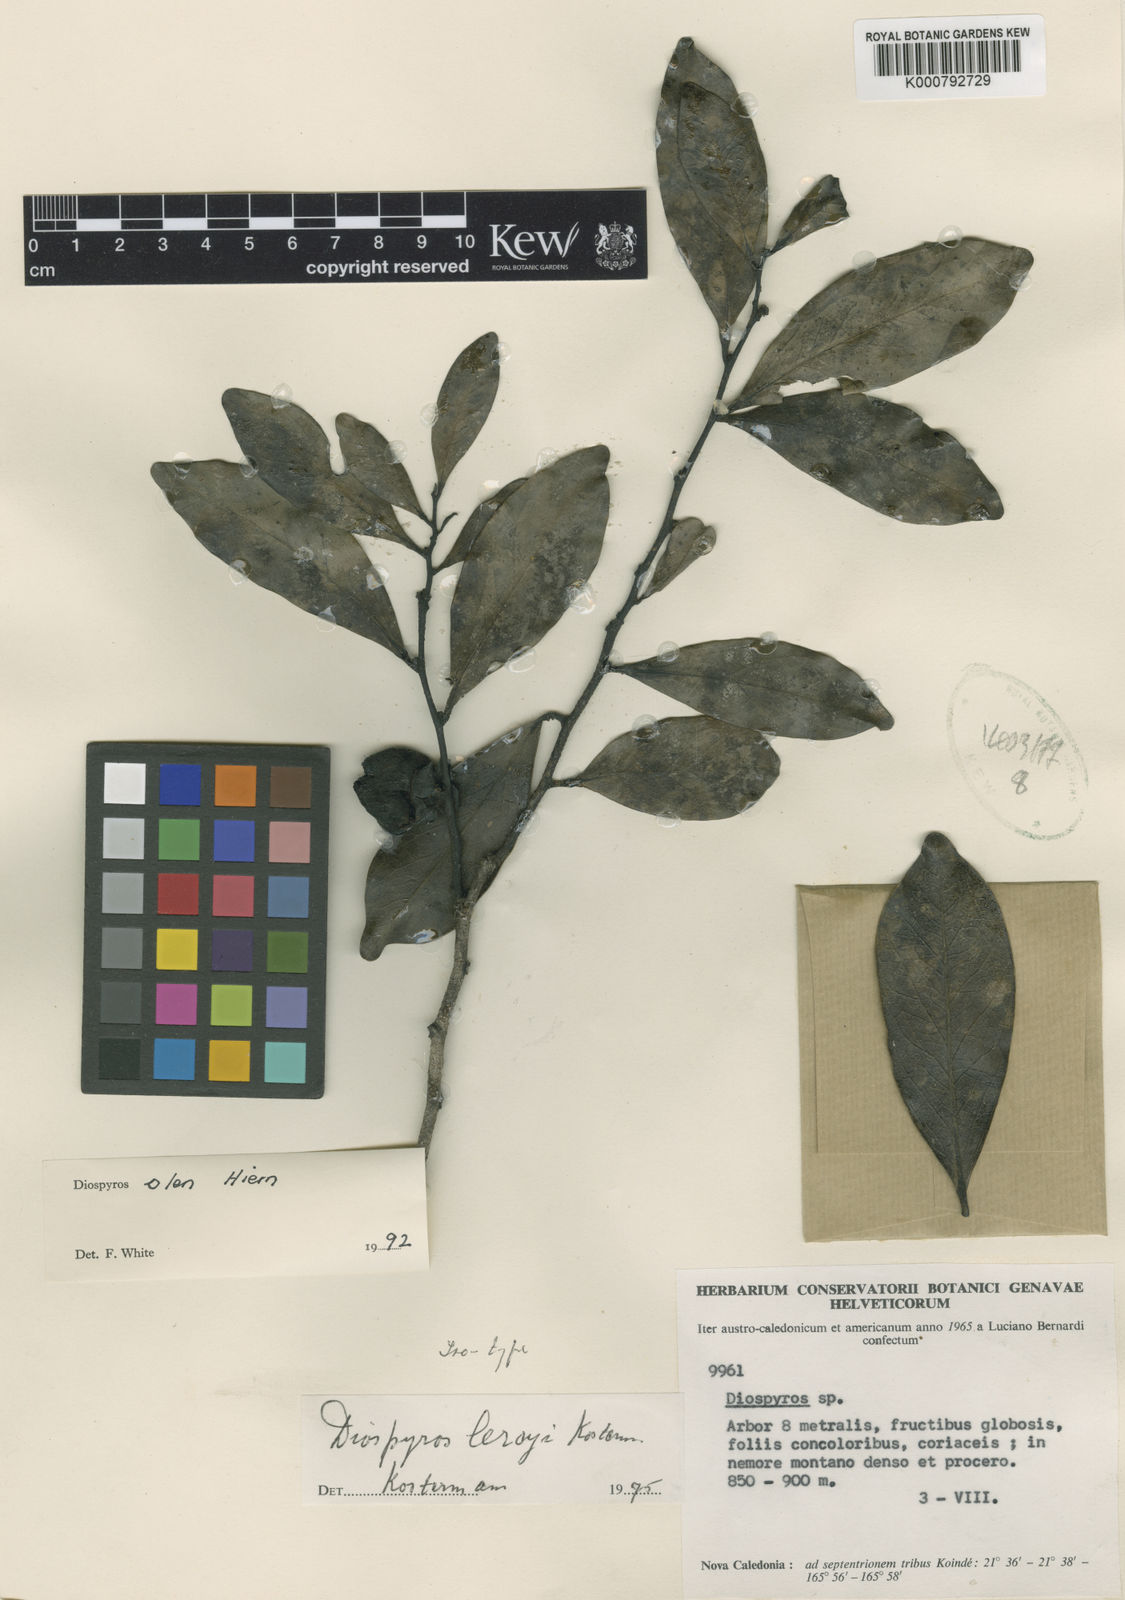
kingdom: Plantae
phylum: Tracheophyta
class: Magnoliopsida
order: Ericales
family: Ebenaceae
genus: Diospyros
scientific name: Diospyros samoensis
